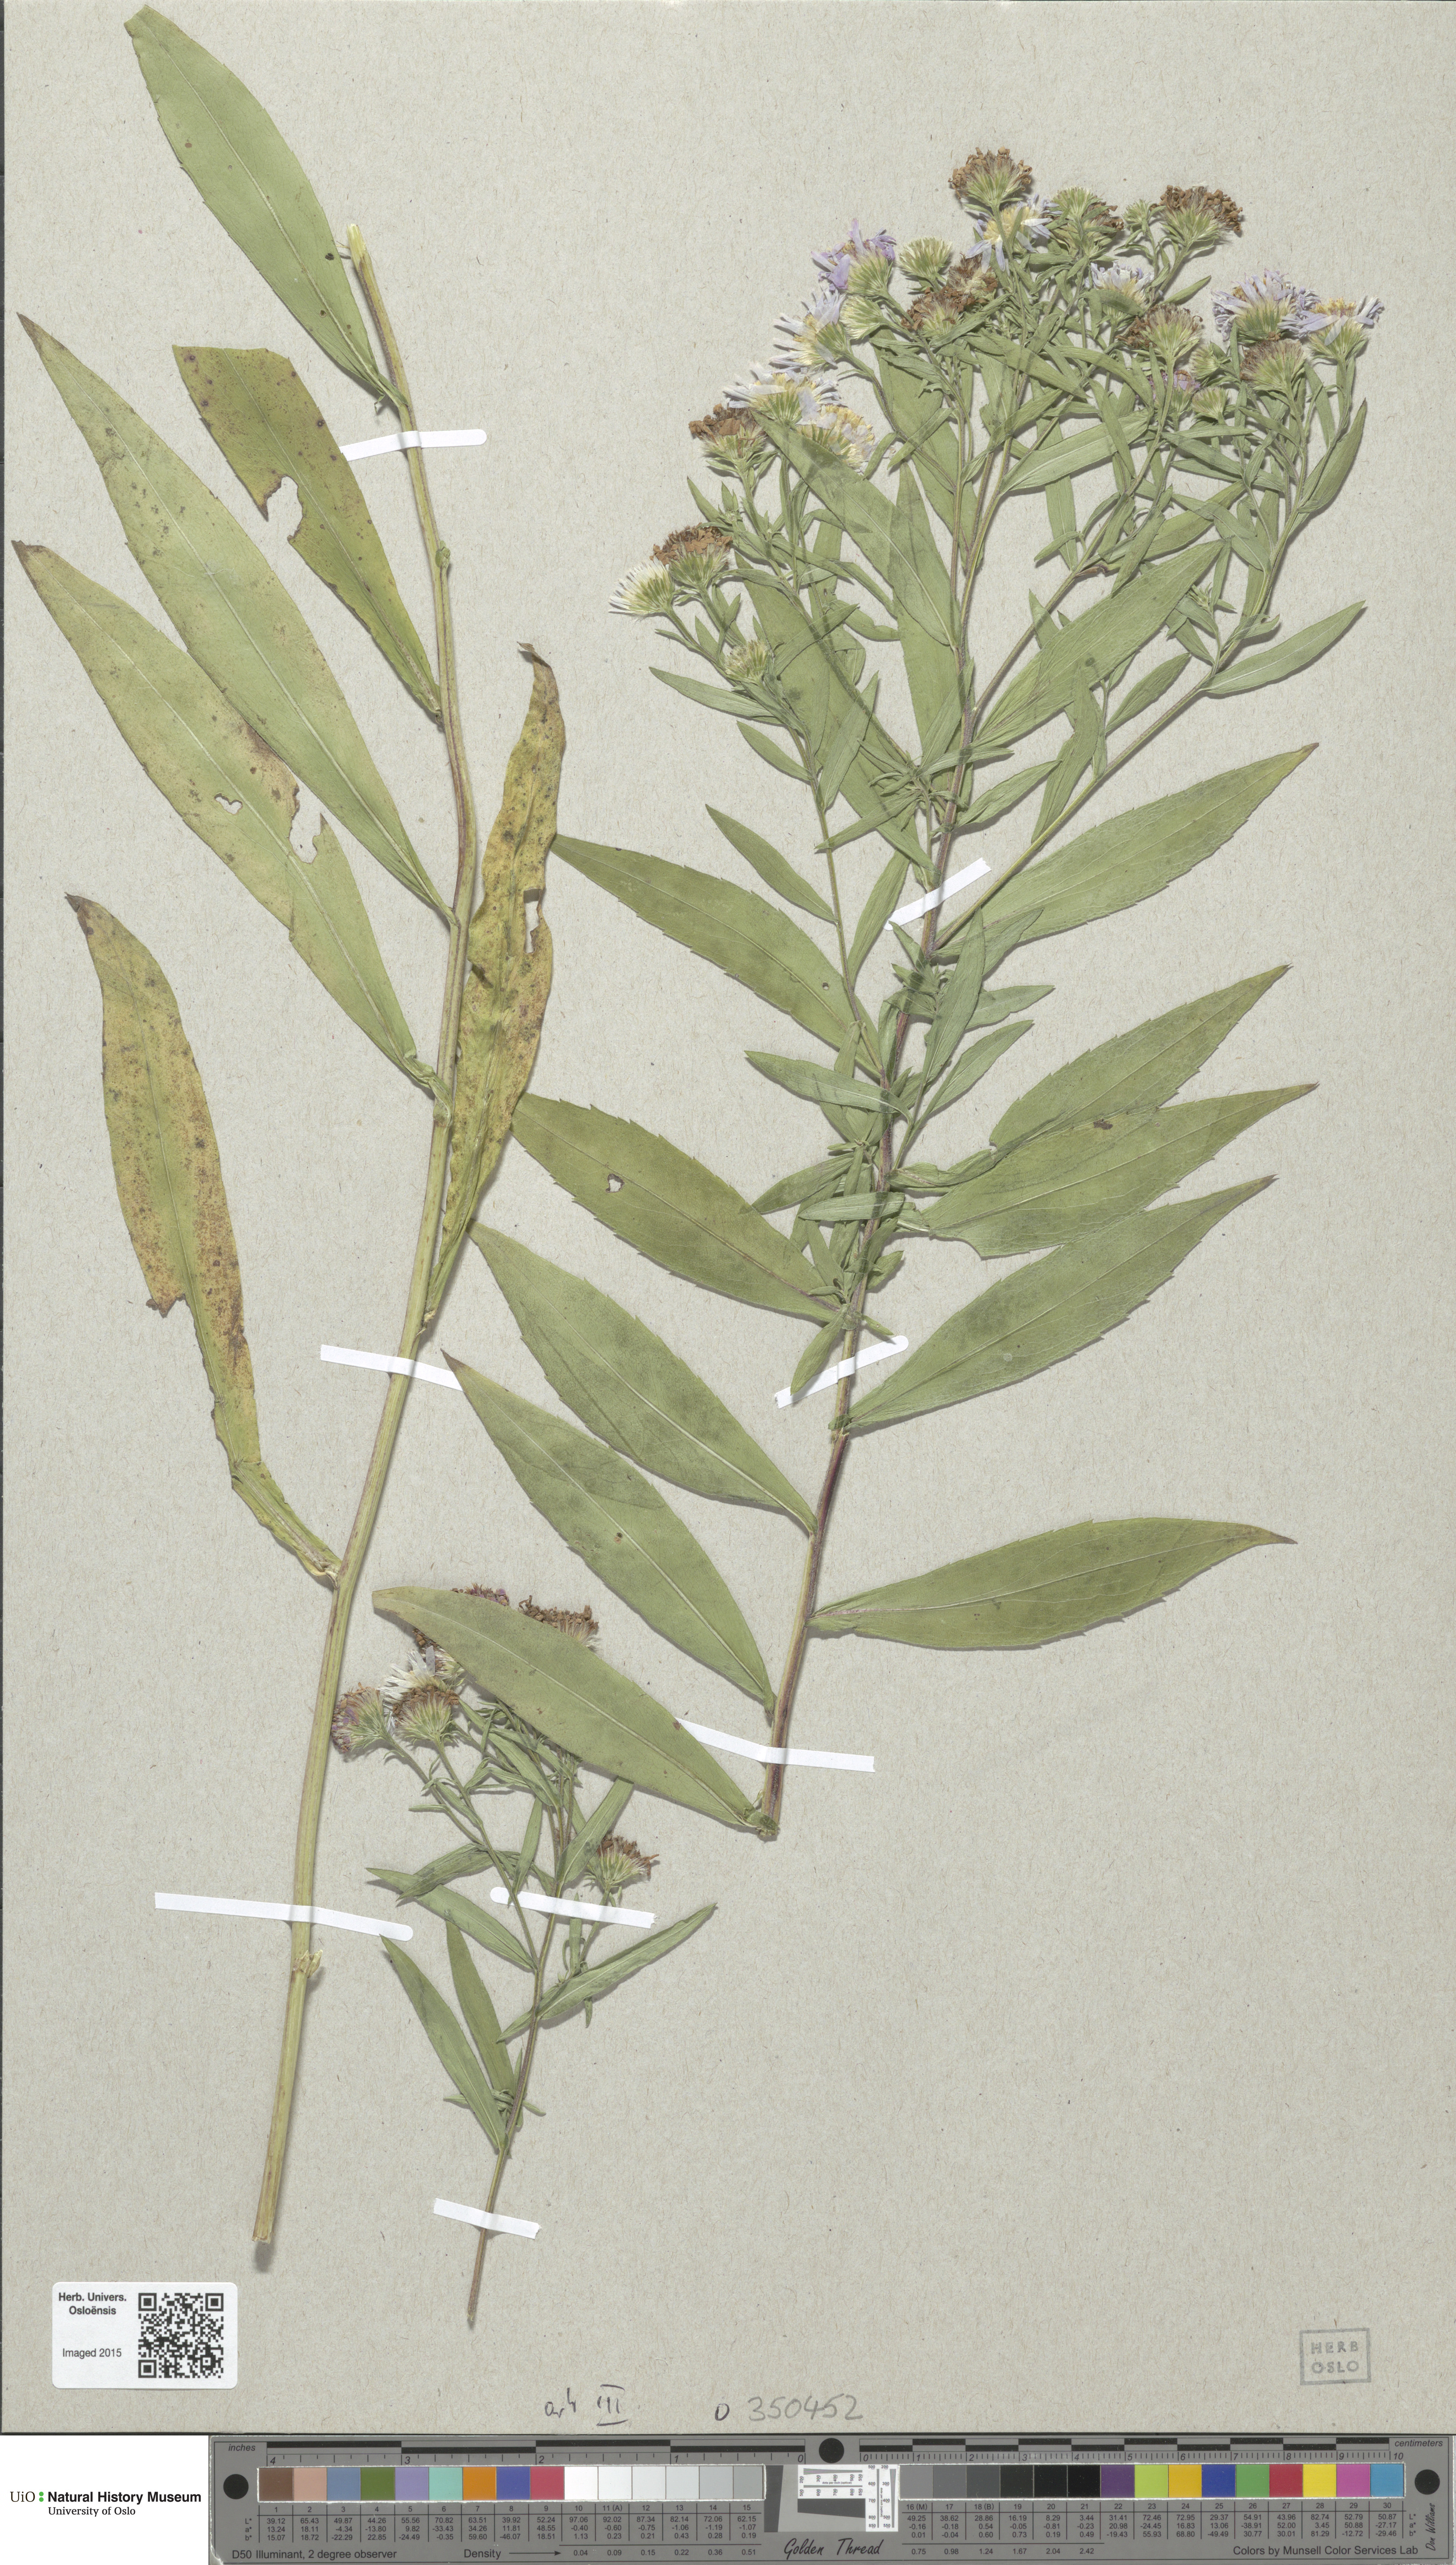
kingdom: Plantae
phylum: Tracheophyta
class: Magnoliopsida
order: Asterales
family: Asteraceae
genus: Symphyotrichum
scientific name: Symphyotrichum novi-belgii
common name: Michaelmas daisy
